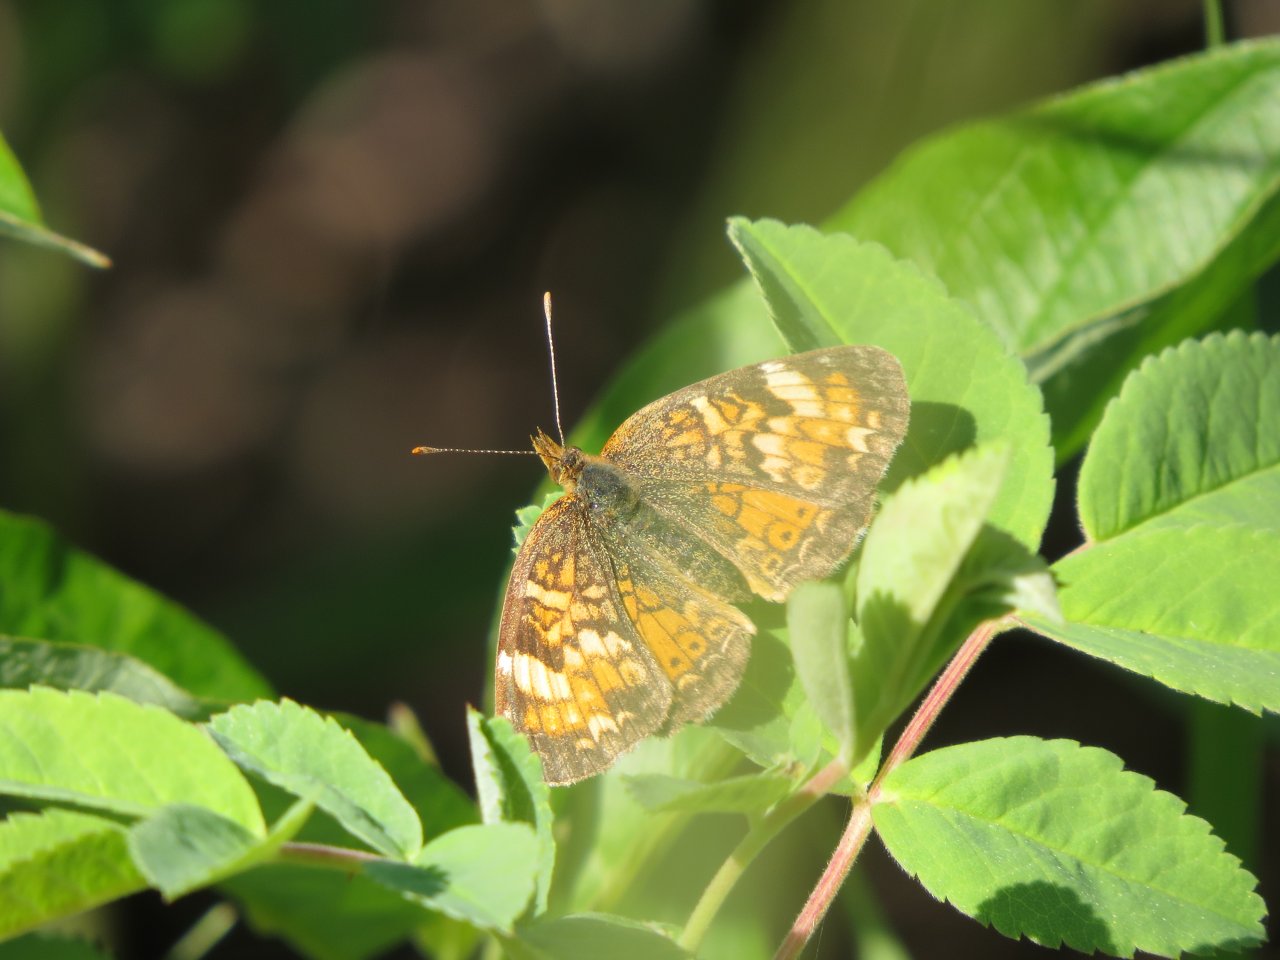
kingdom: Animalia
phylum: Arthropoda
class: Insecta
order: Lepidoptera
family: Nymphalidae
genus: Phyciodes
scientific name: Phyciodes tharos
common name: Northern Crescent
